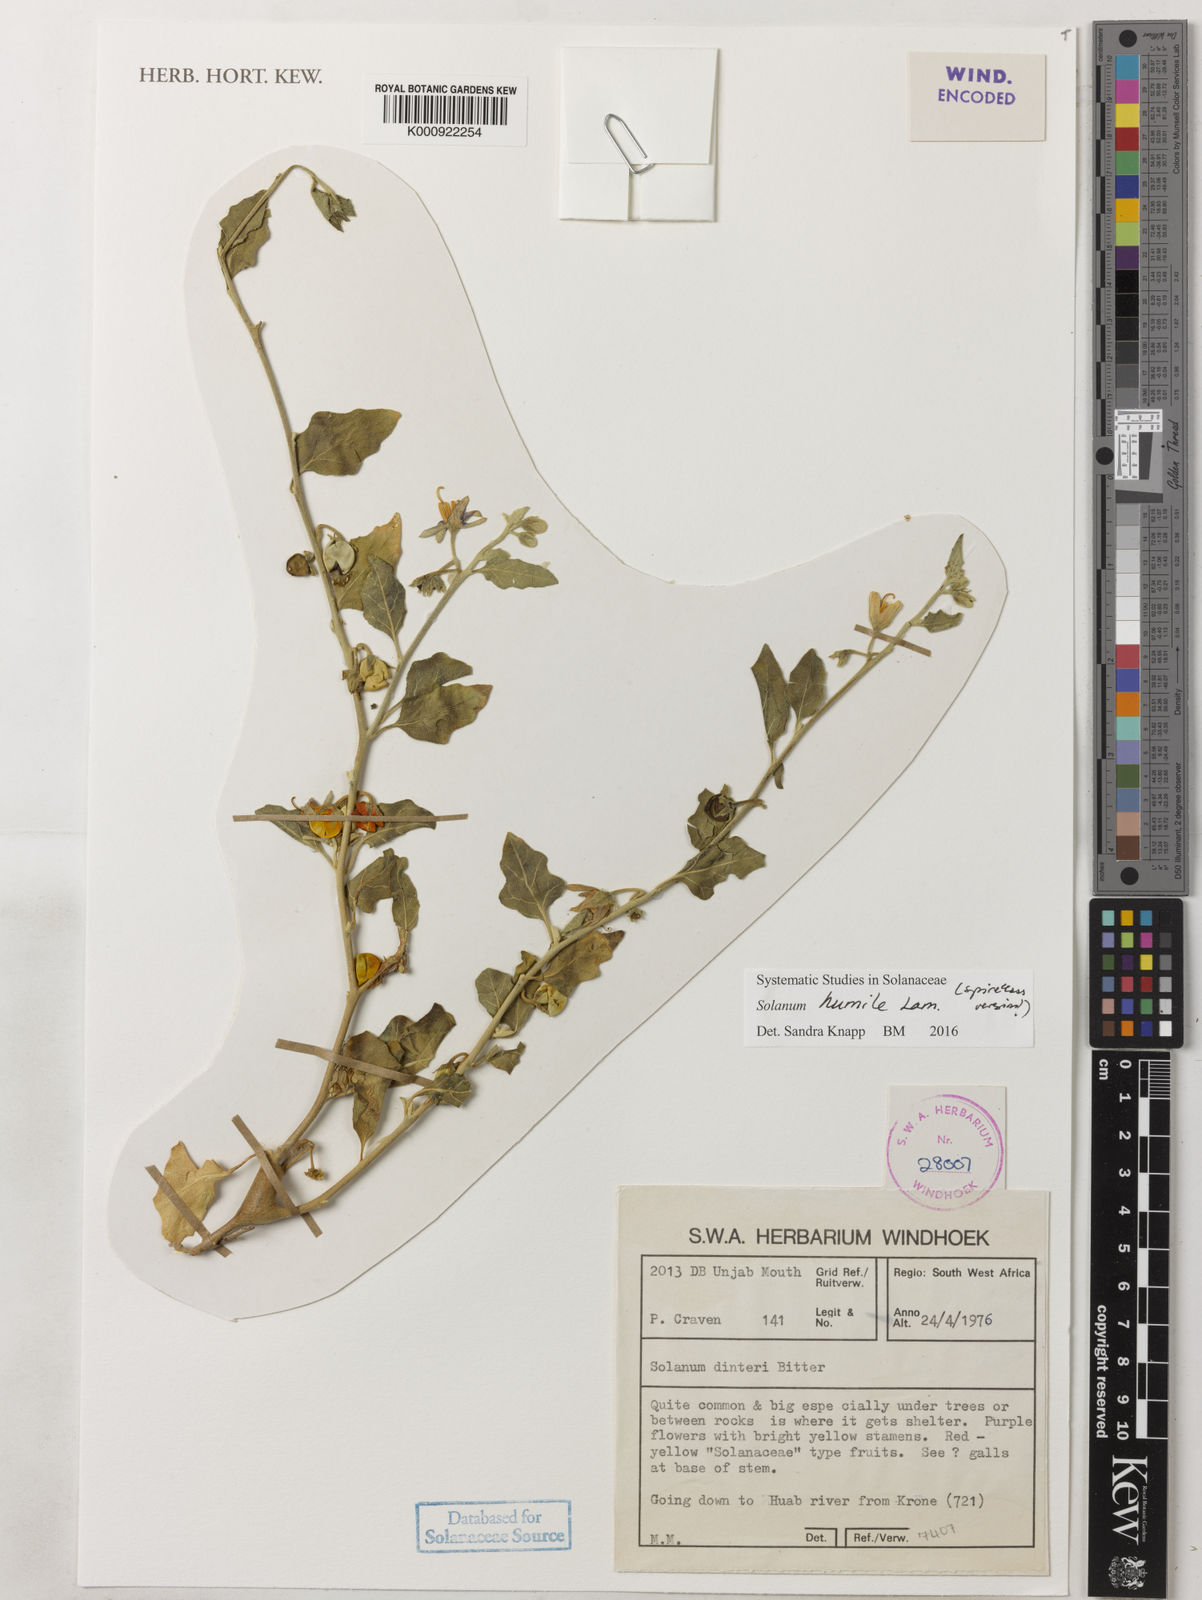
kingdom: Plantae
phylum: Tracheophyta
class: Magnoliopsida
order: Solanales
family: Solanaceae
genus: Solanum
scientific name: Solanum humile
